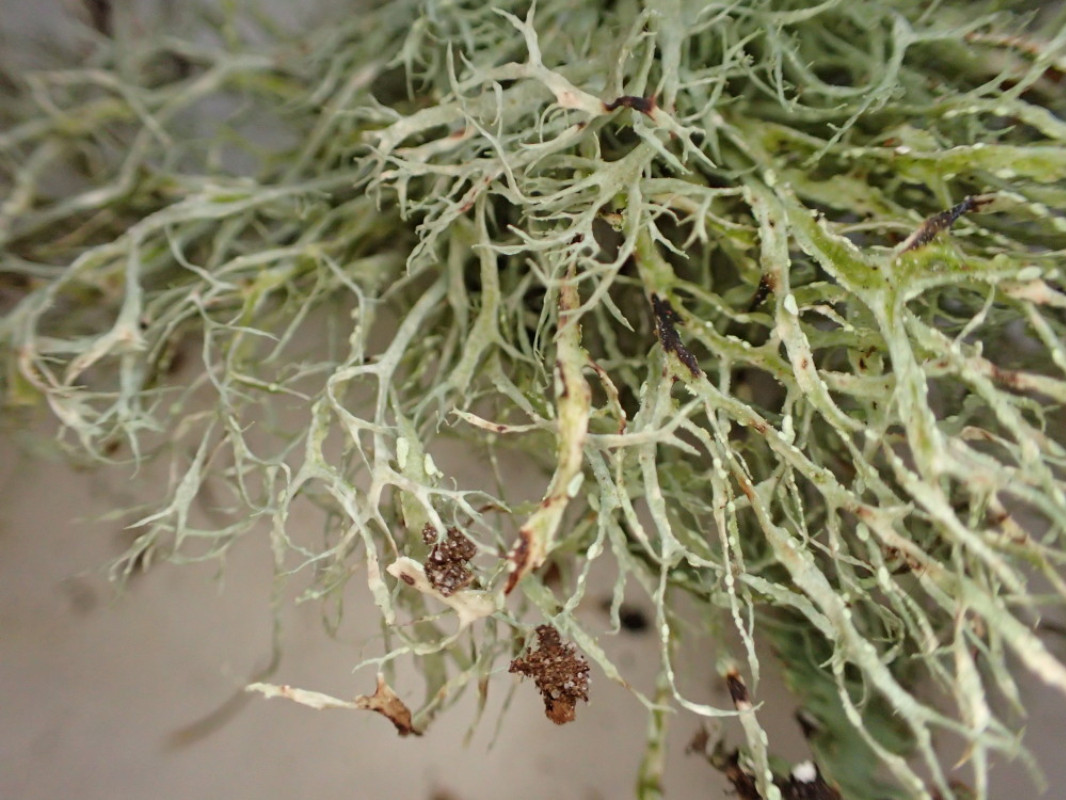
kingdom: Fungi
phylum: Ascomycota
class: Lecanoromycetes
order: Lecanorales
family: Ramalinaceae
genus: Ramalina
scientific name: Ramalina farinacea
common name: melet grenlav
